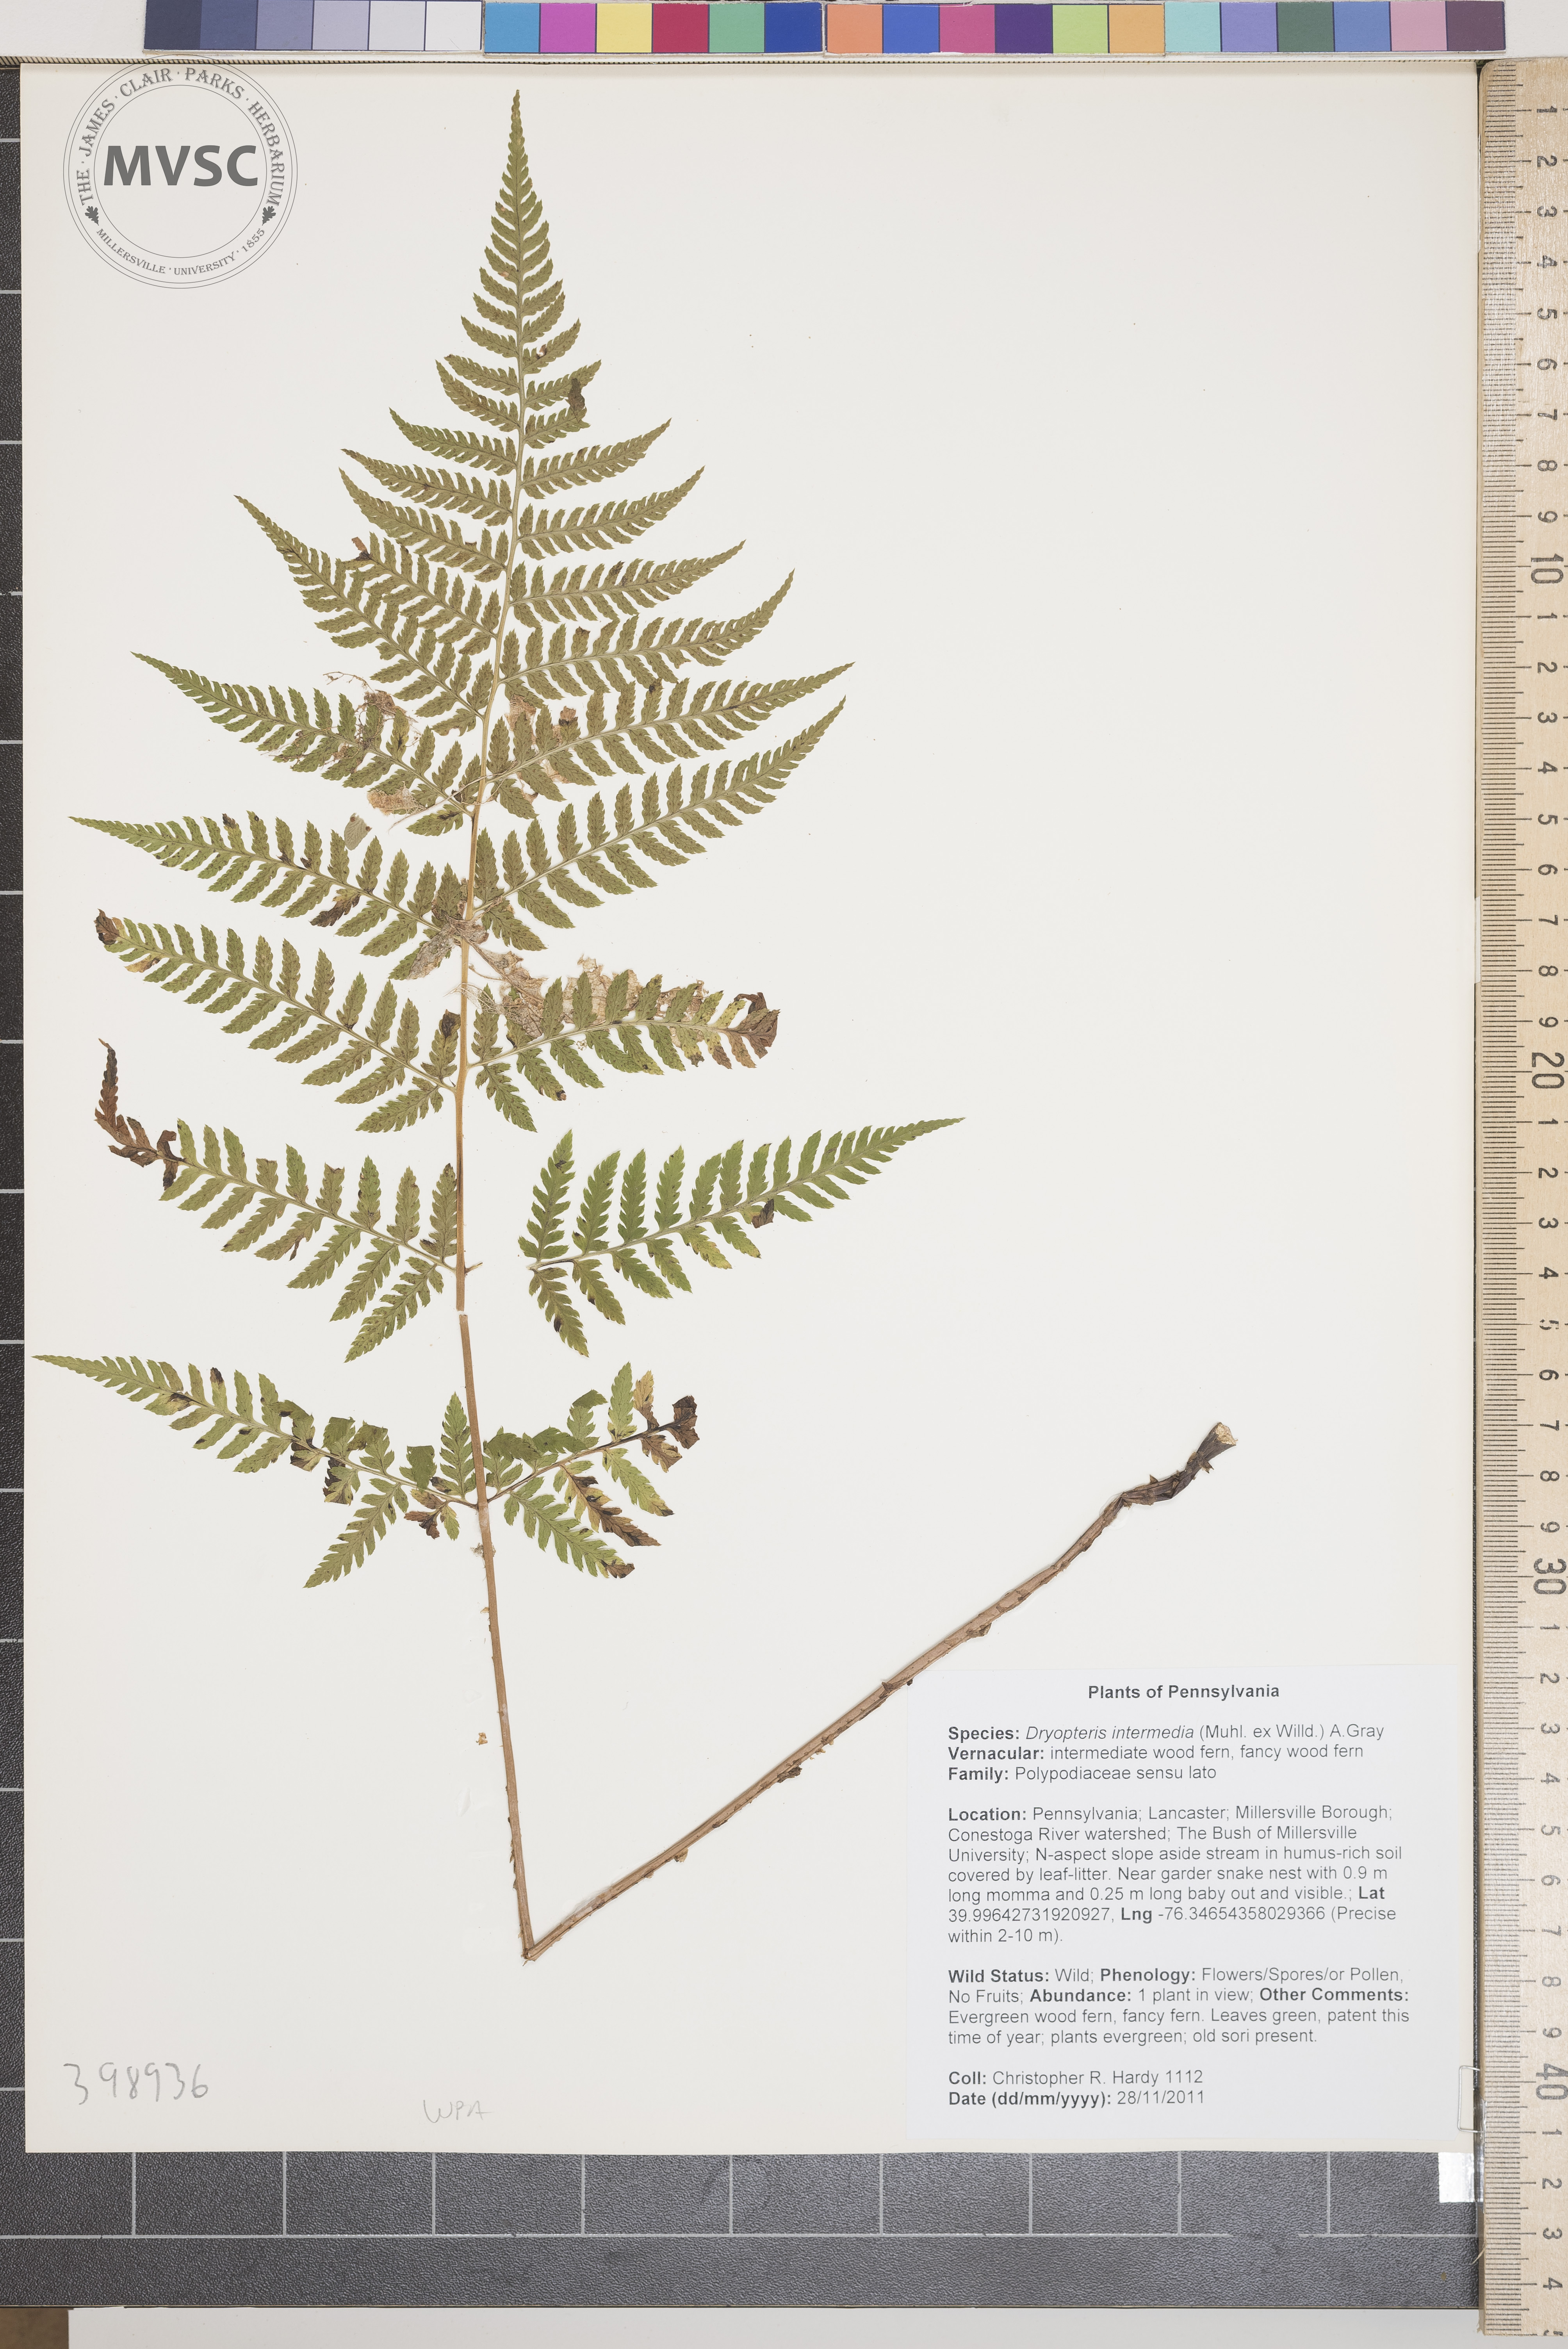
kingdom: Plantae
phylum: Tracheophyta
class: Polypodiopsida
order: Polypodiales
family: Dryopteridaceae
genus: Dryopteris
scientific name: Dryopteris intermedia
